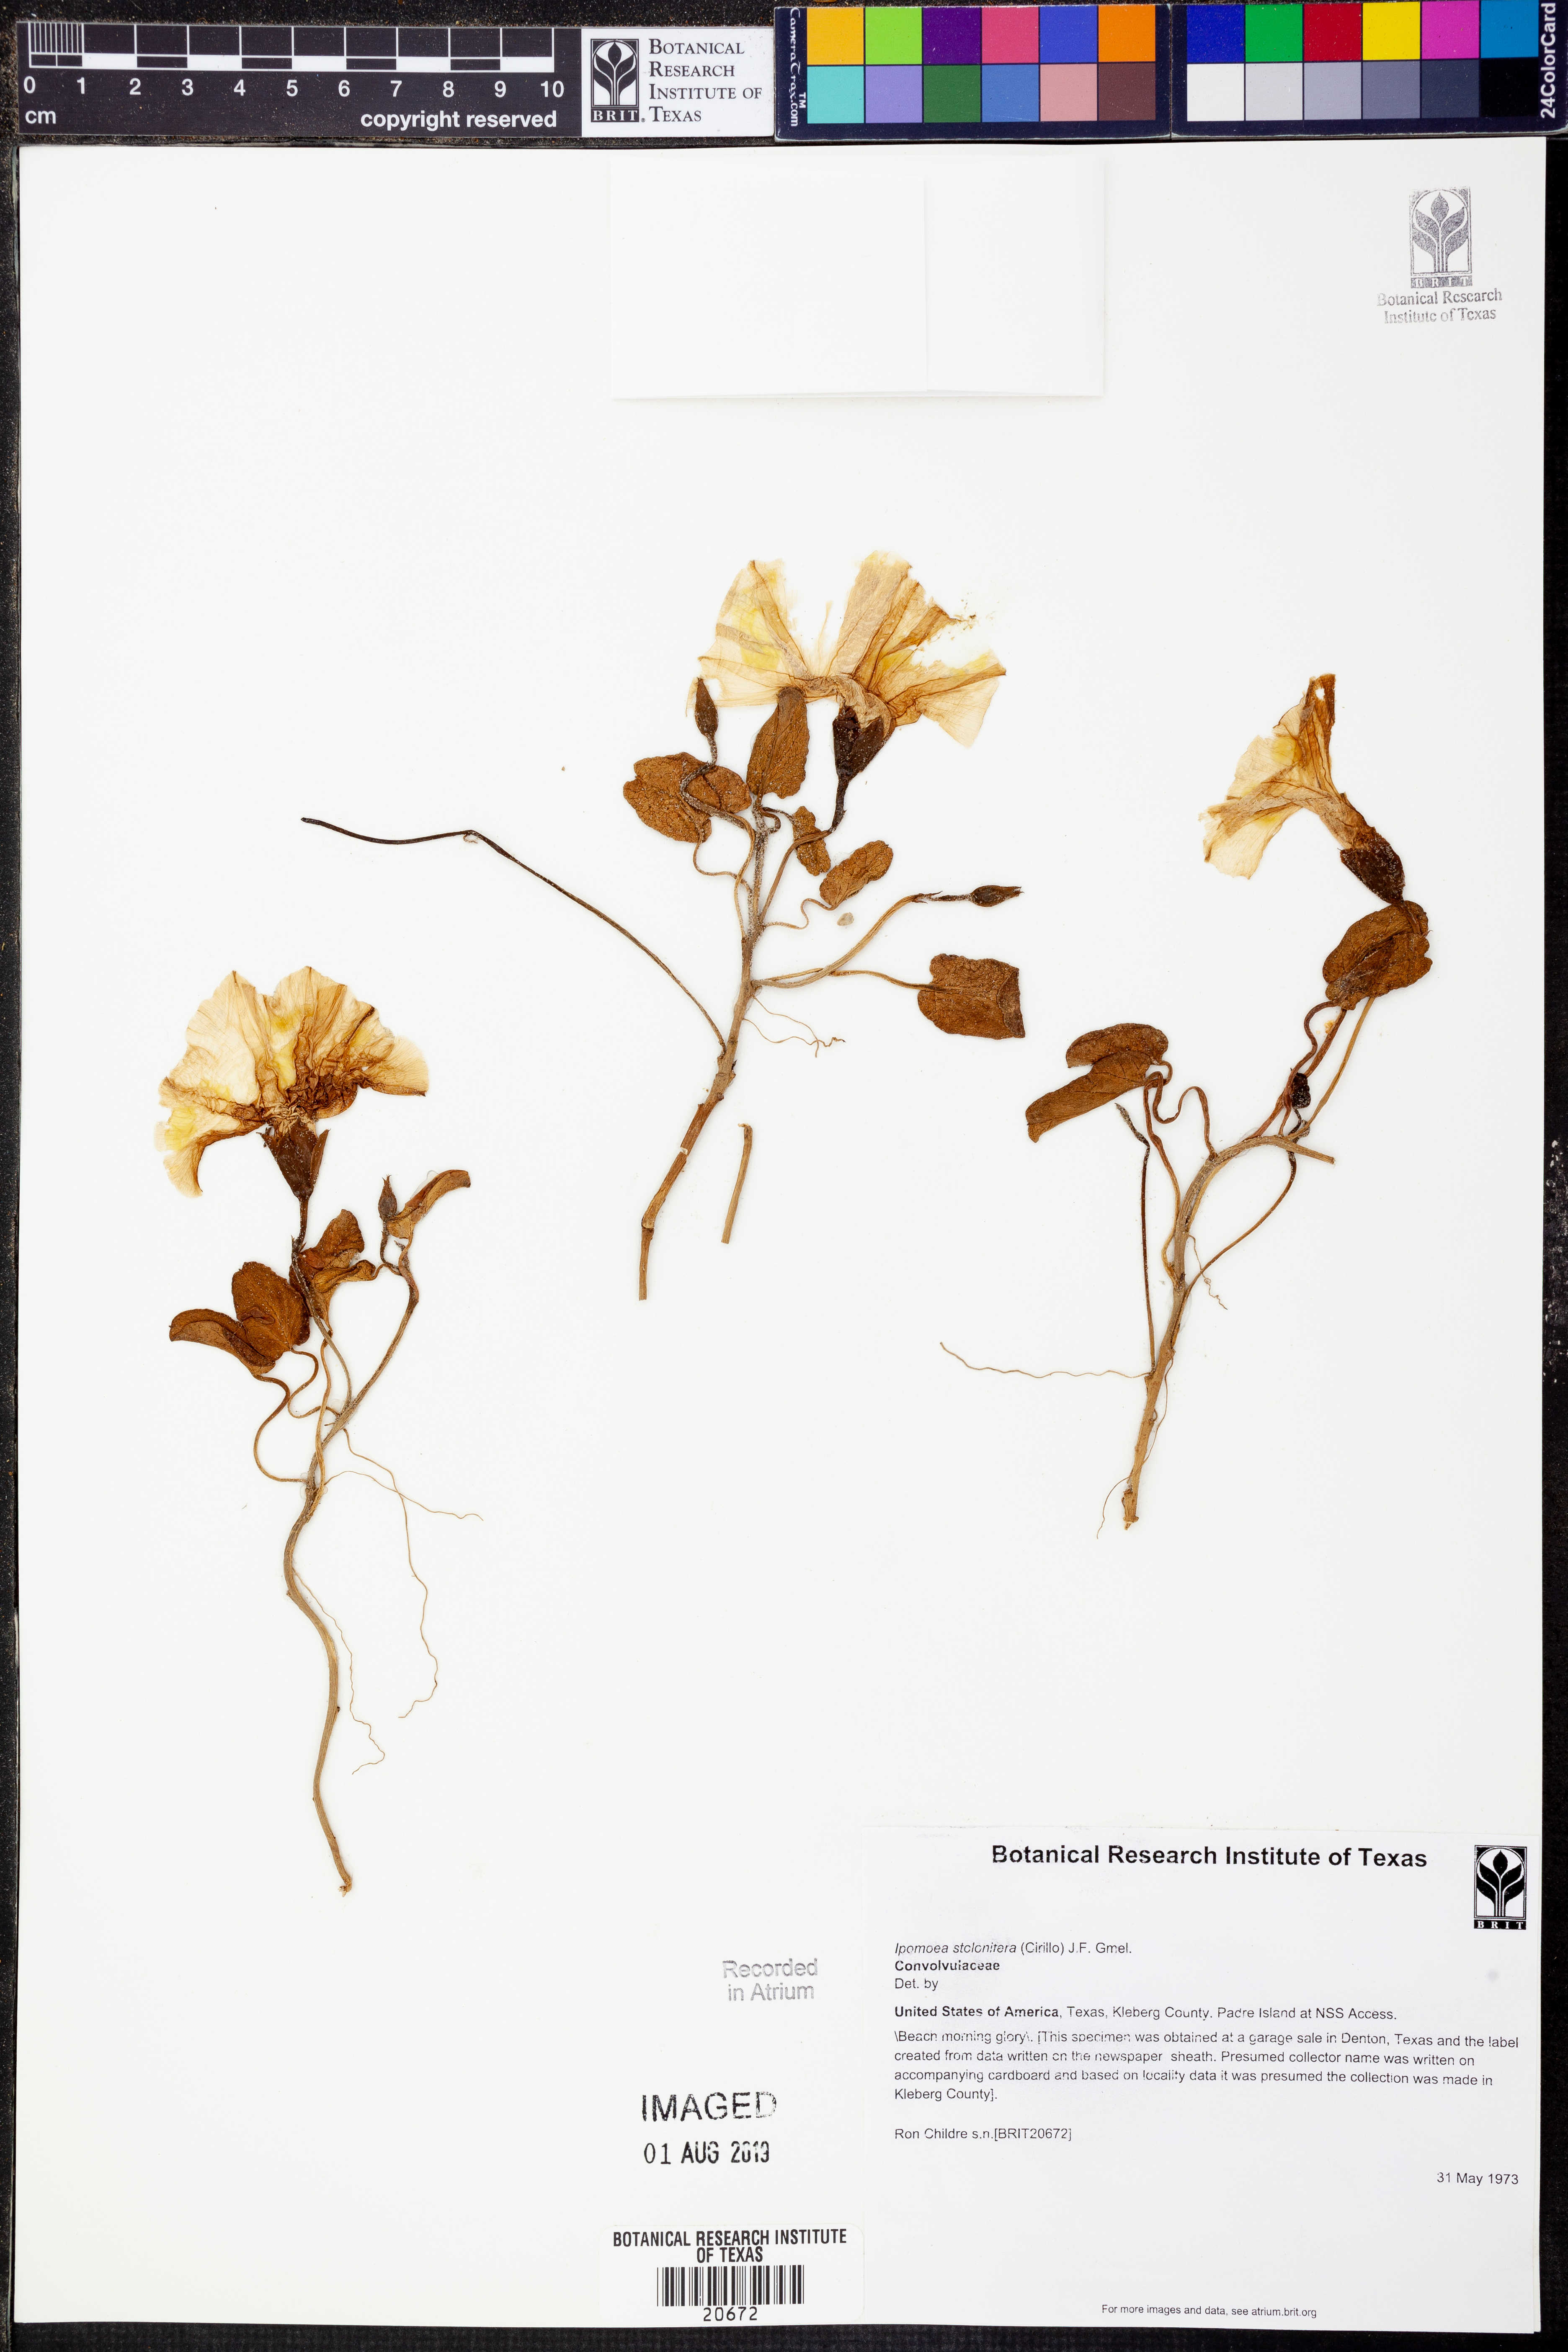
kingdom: Plantae
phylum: Tracheophyta
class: Magnoliopsida
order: Solanales
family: Convolvulaceae
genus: Ipomoea
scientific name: Ipomoea imperati
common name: Fiddle-leaf morning-glory
